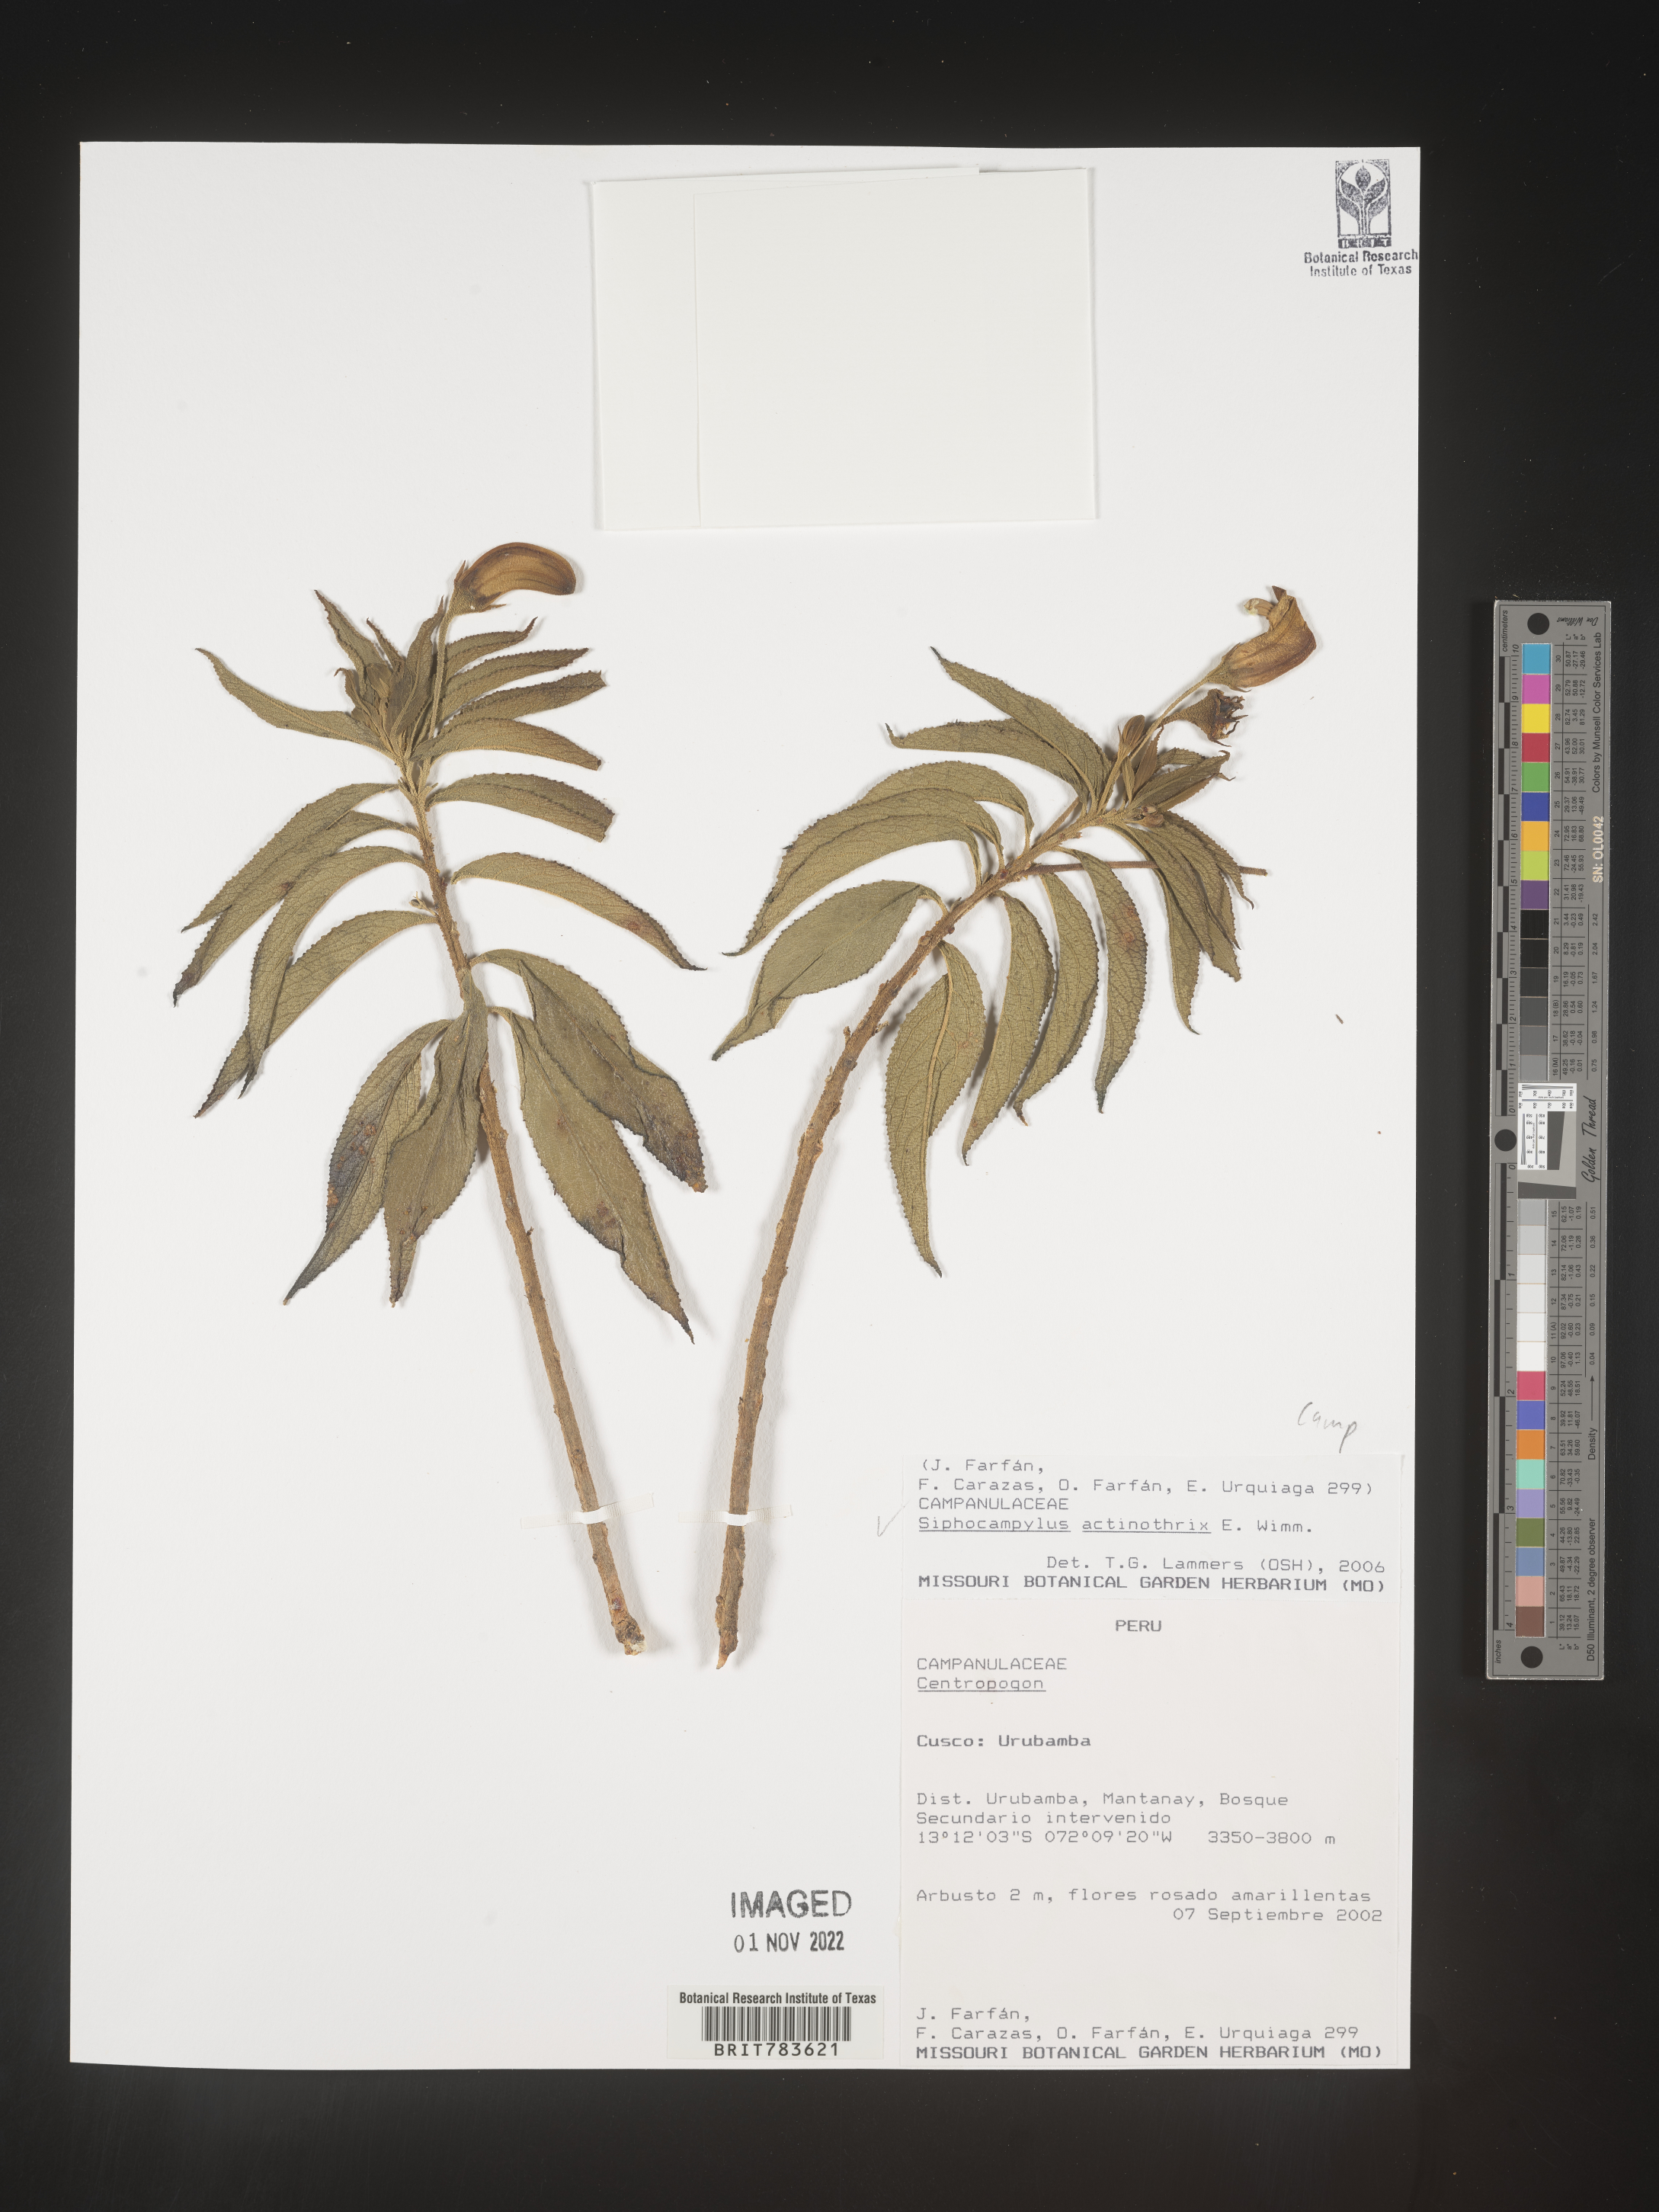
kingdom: Plantae
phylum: Tracheophyta
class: Magnoliopsida
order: Asterales
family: Campanulaceae
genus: Siphocampylus
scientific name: Siphocampylus
